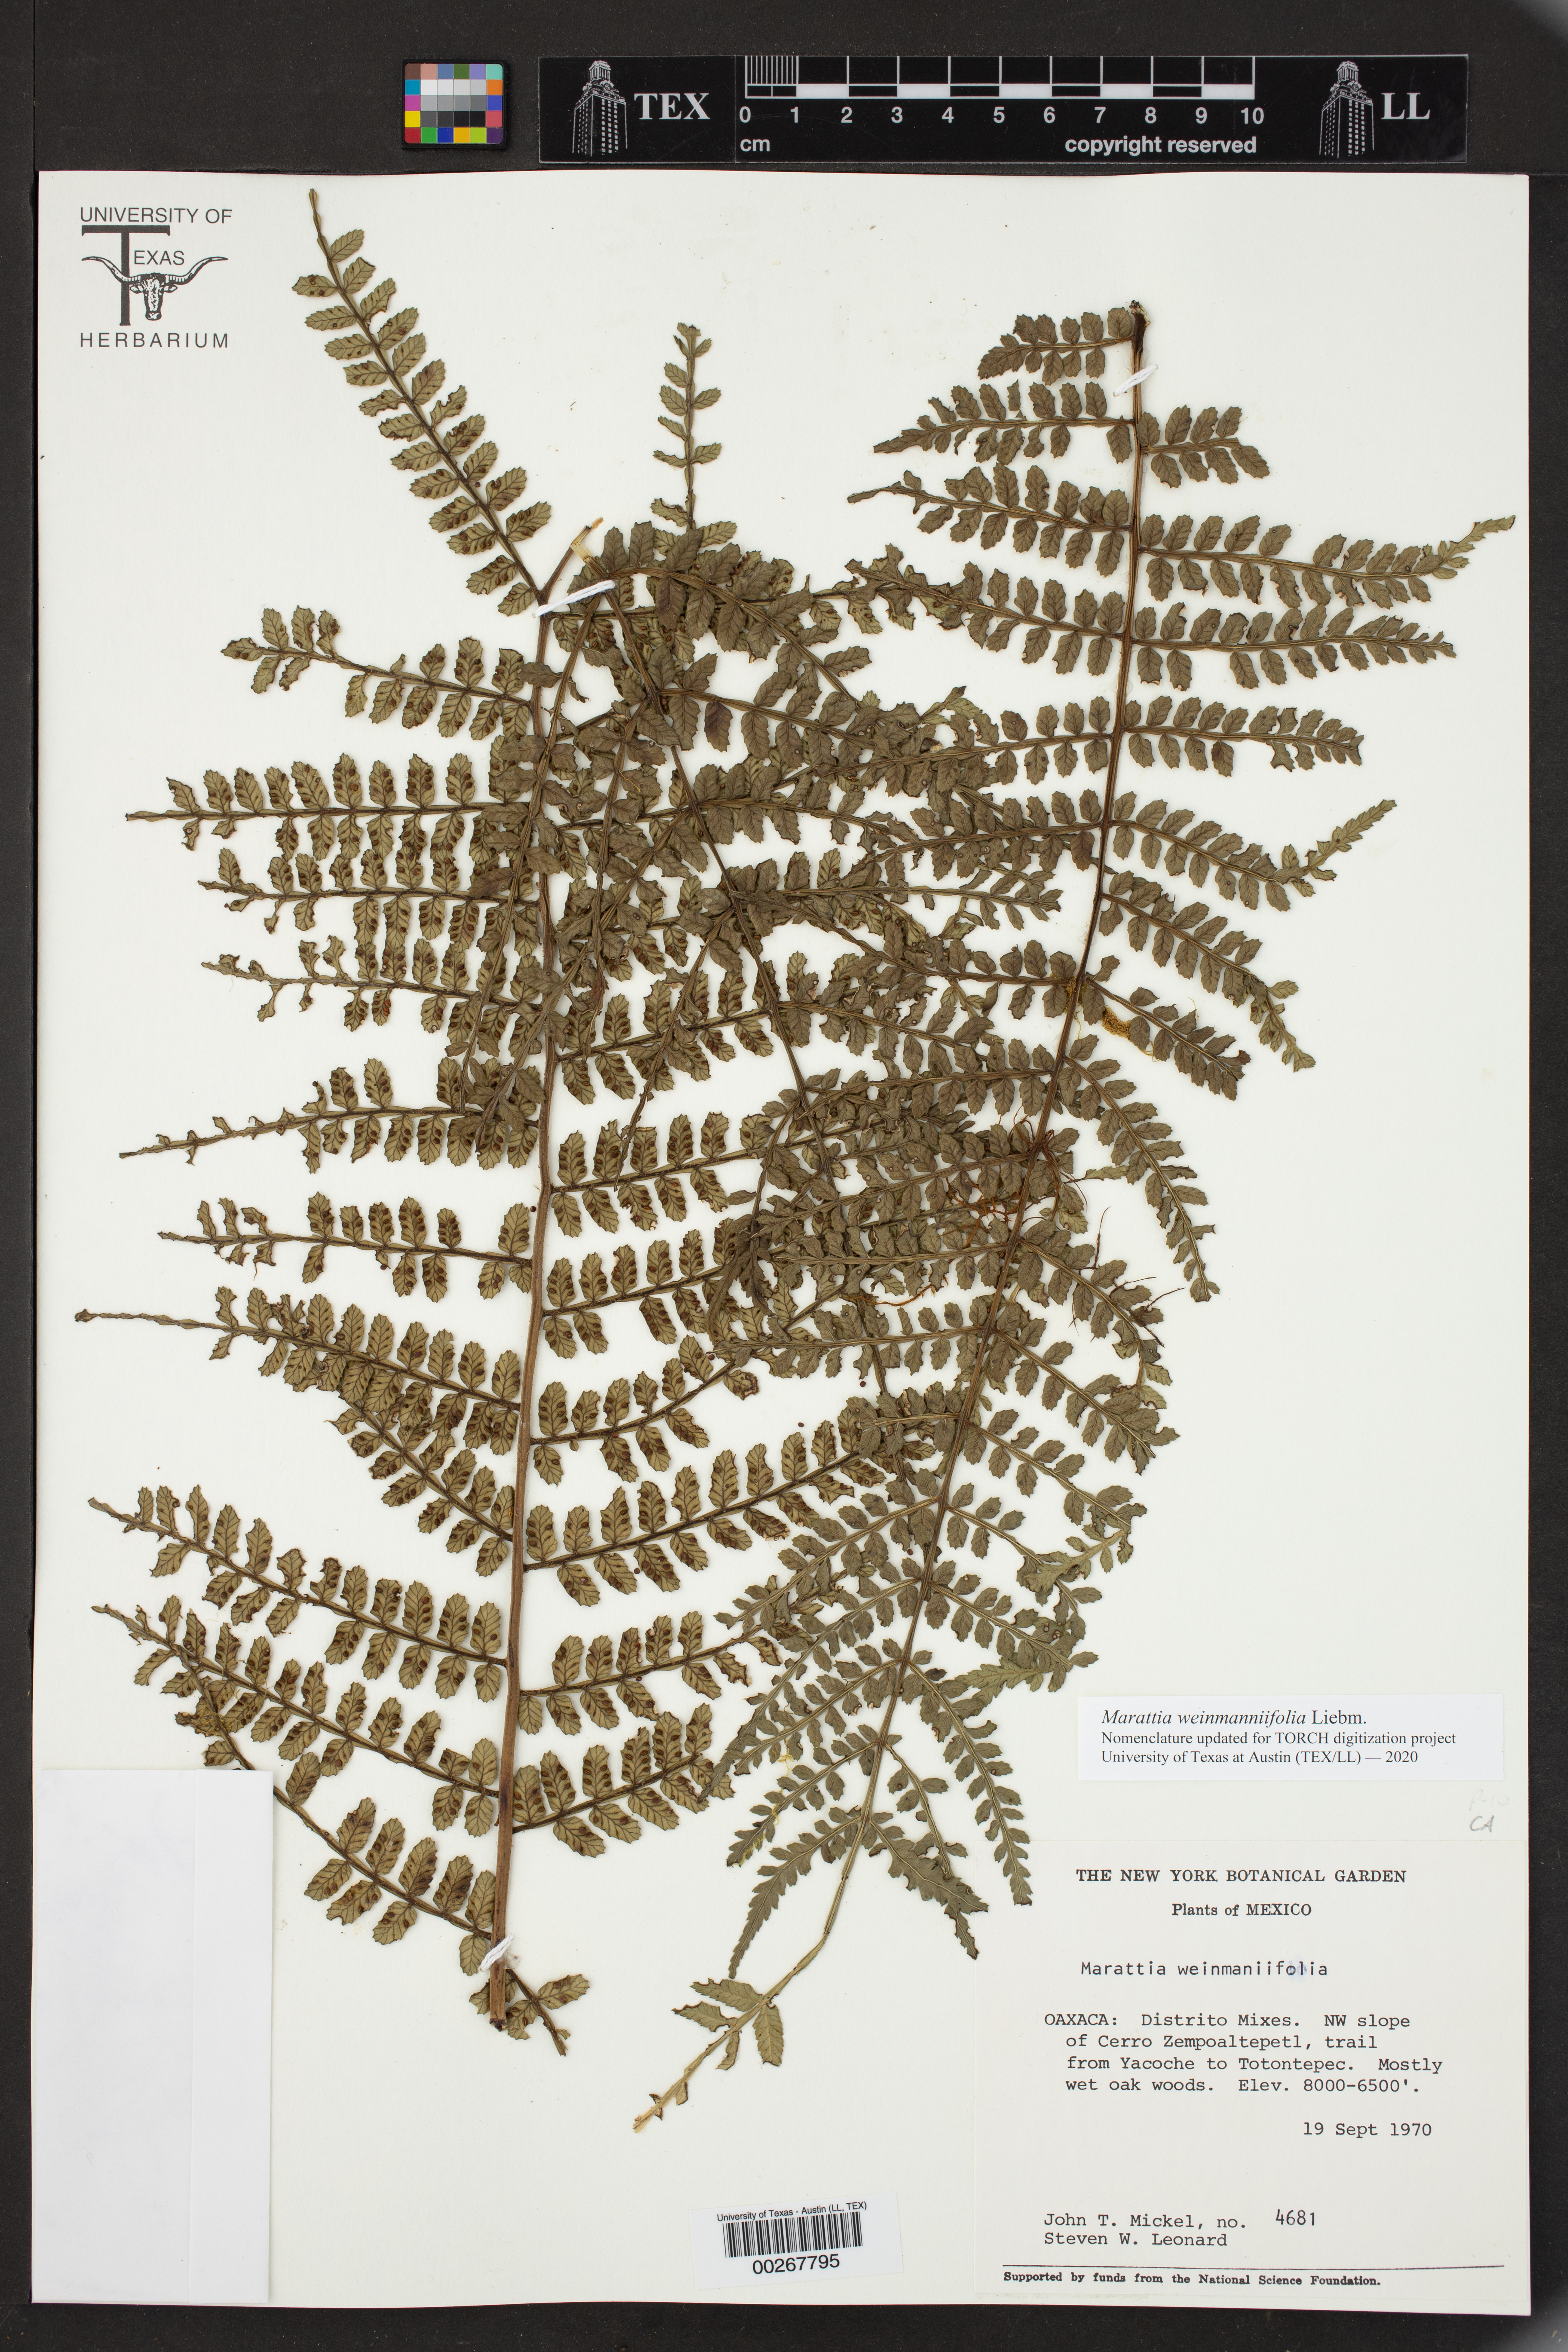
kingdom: Plantae
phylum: Tracheophyta
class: Polypodiopsida
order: Marattiales
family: Marattiaceae
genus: Marattia
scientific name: Marattia weinmanniifolia
